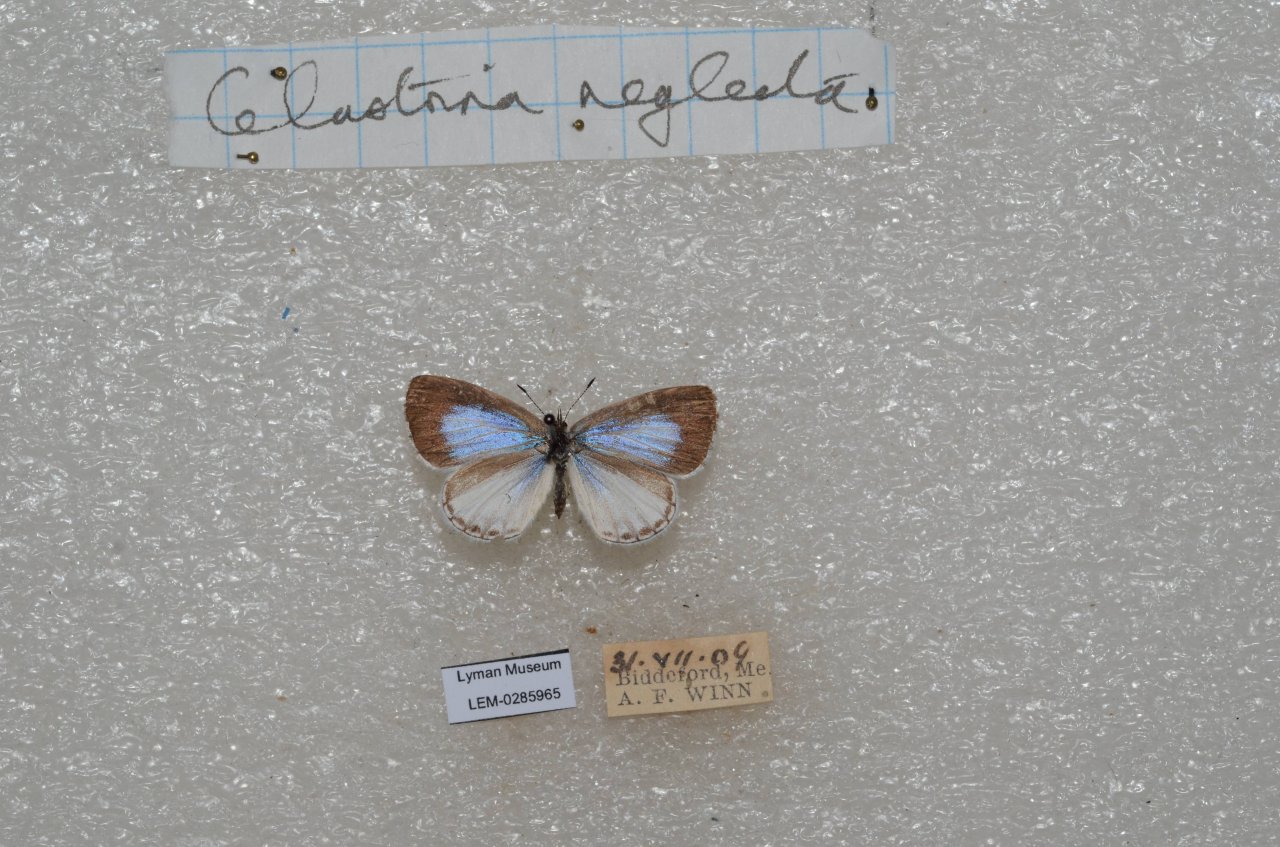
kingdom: Animalia
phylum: Arthropoda
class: Insecta
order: Lepidoptera
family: Lycaenidae
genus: Cyaniris
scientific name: Cyaniris neglecta
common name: Summer Azure
